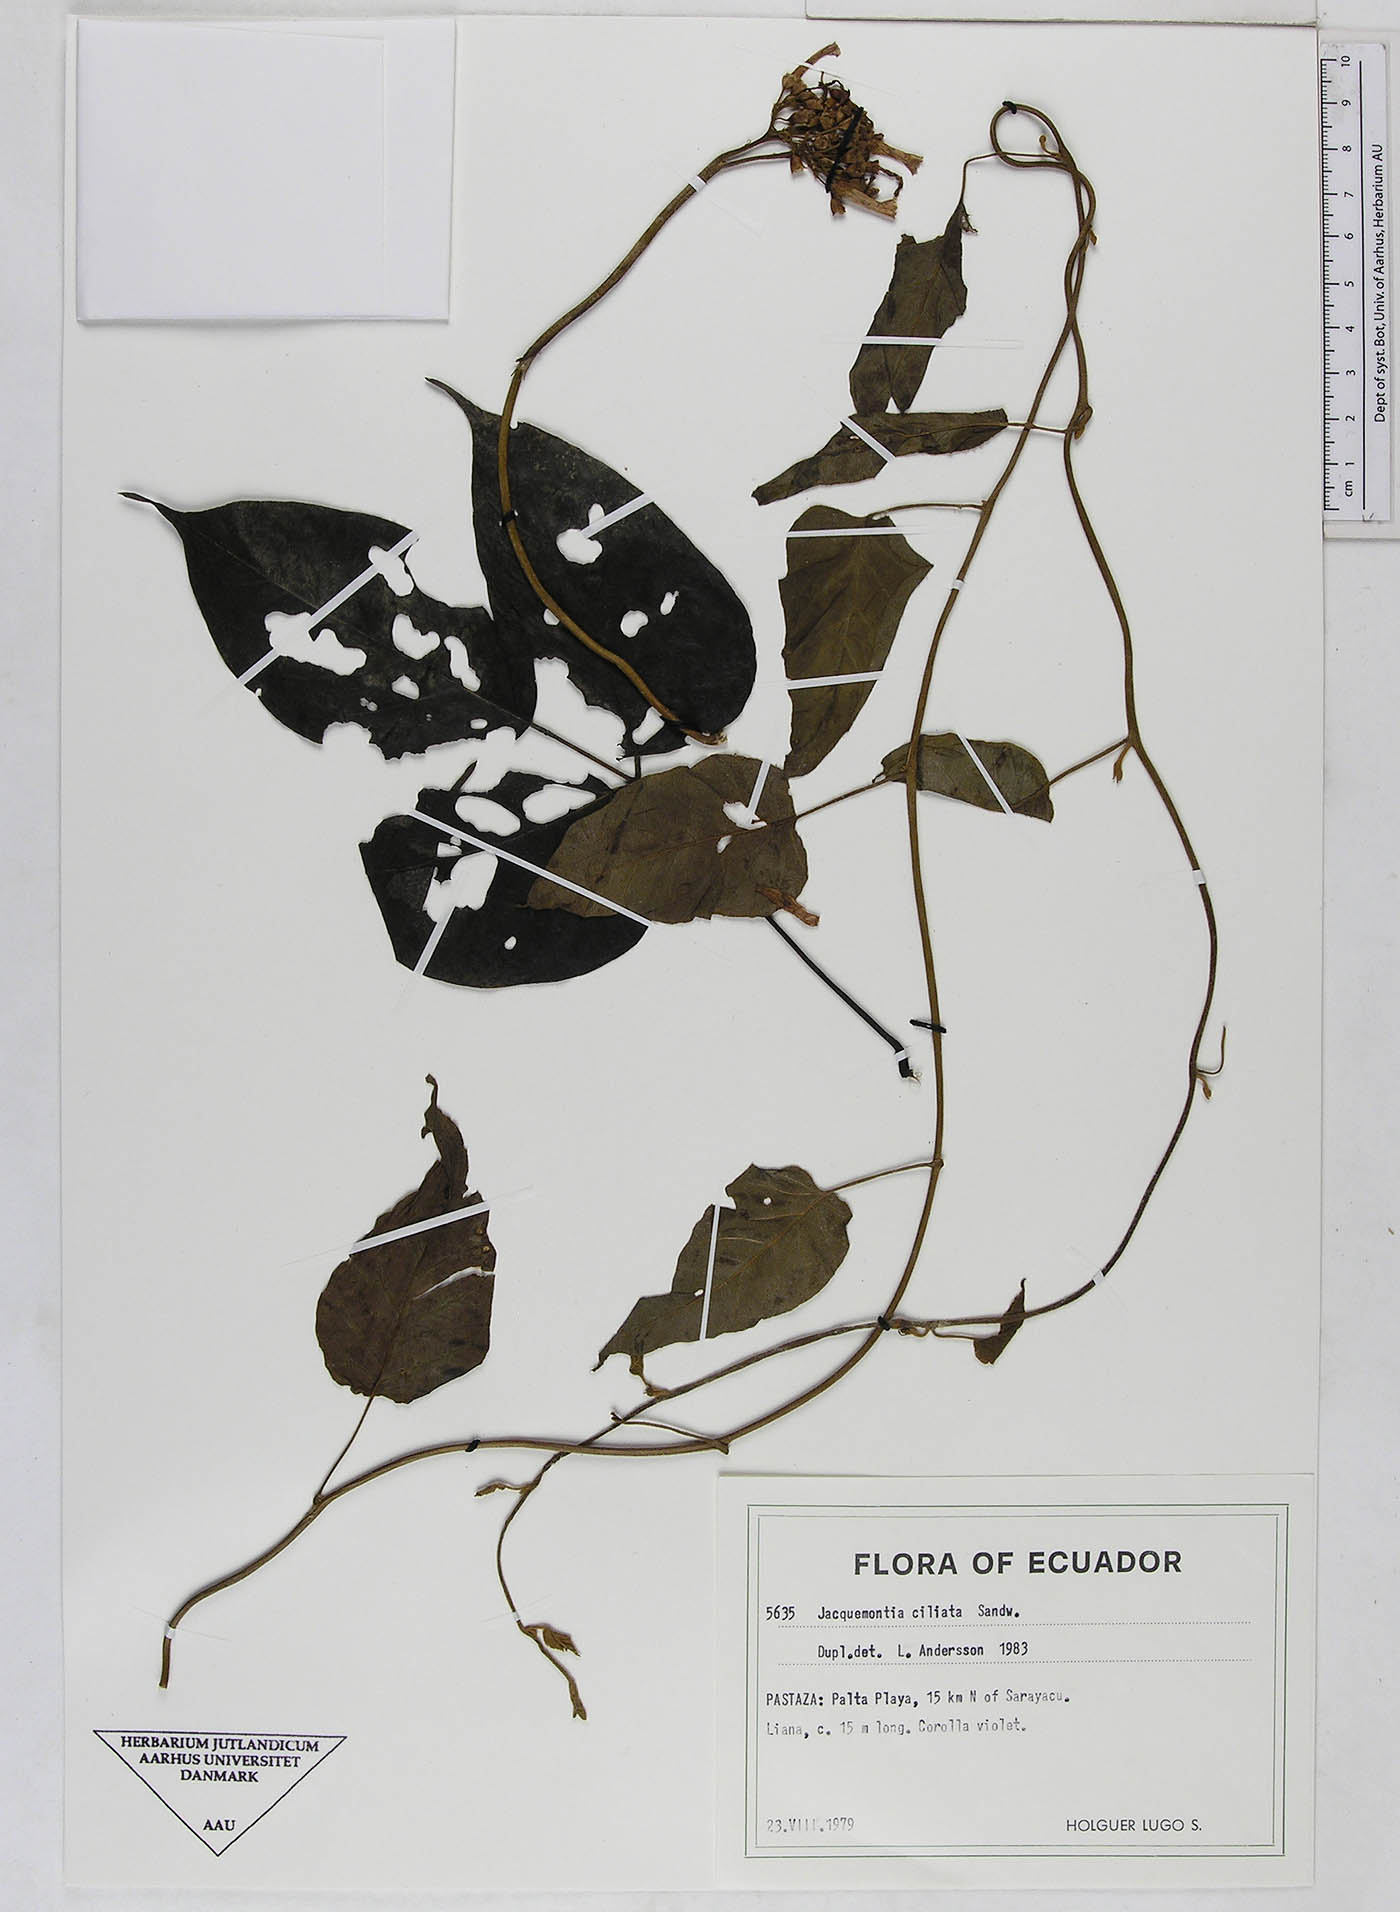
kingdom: Plantae
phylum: Tracheophyta
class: Magnoliopsida
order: Solanales
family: Convolvulaceae
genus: Jacquemontia
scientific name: Jacquemontia gabrielii
